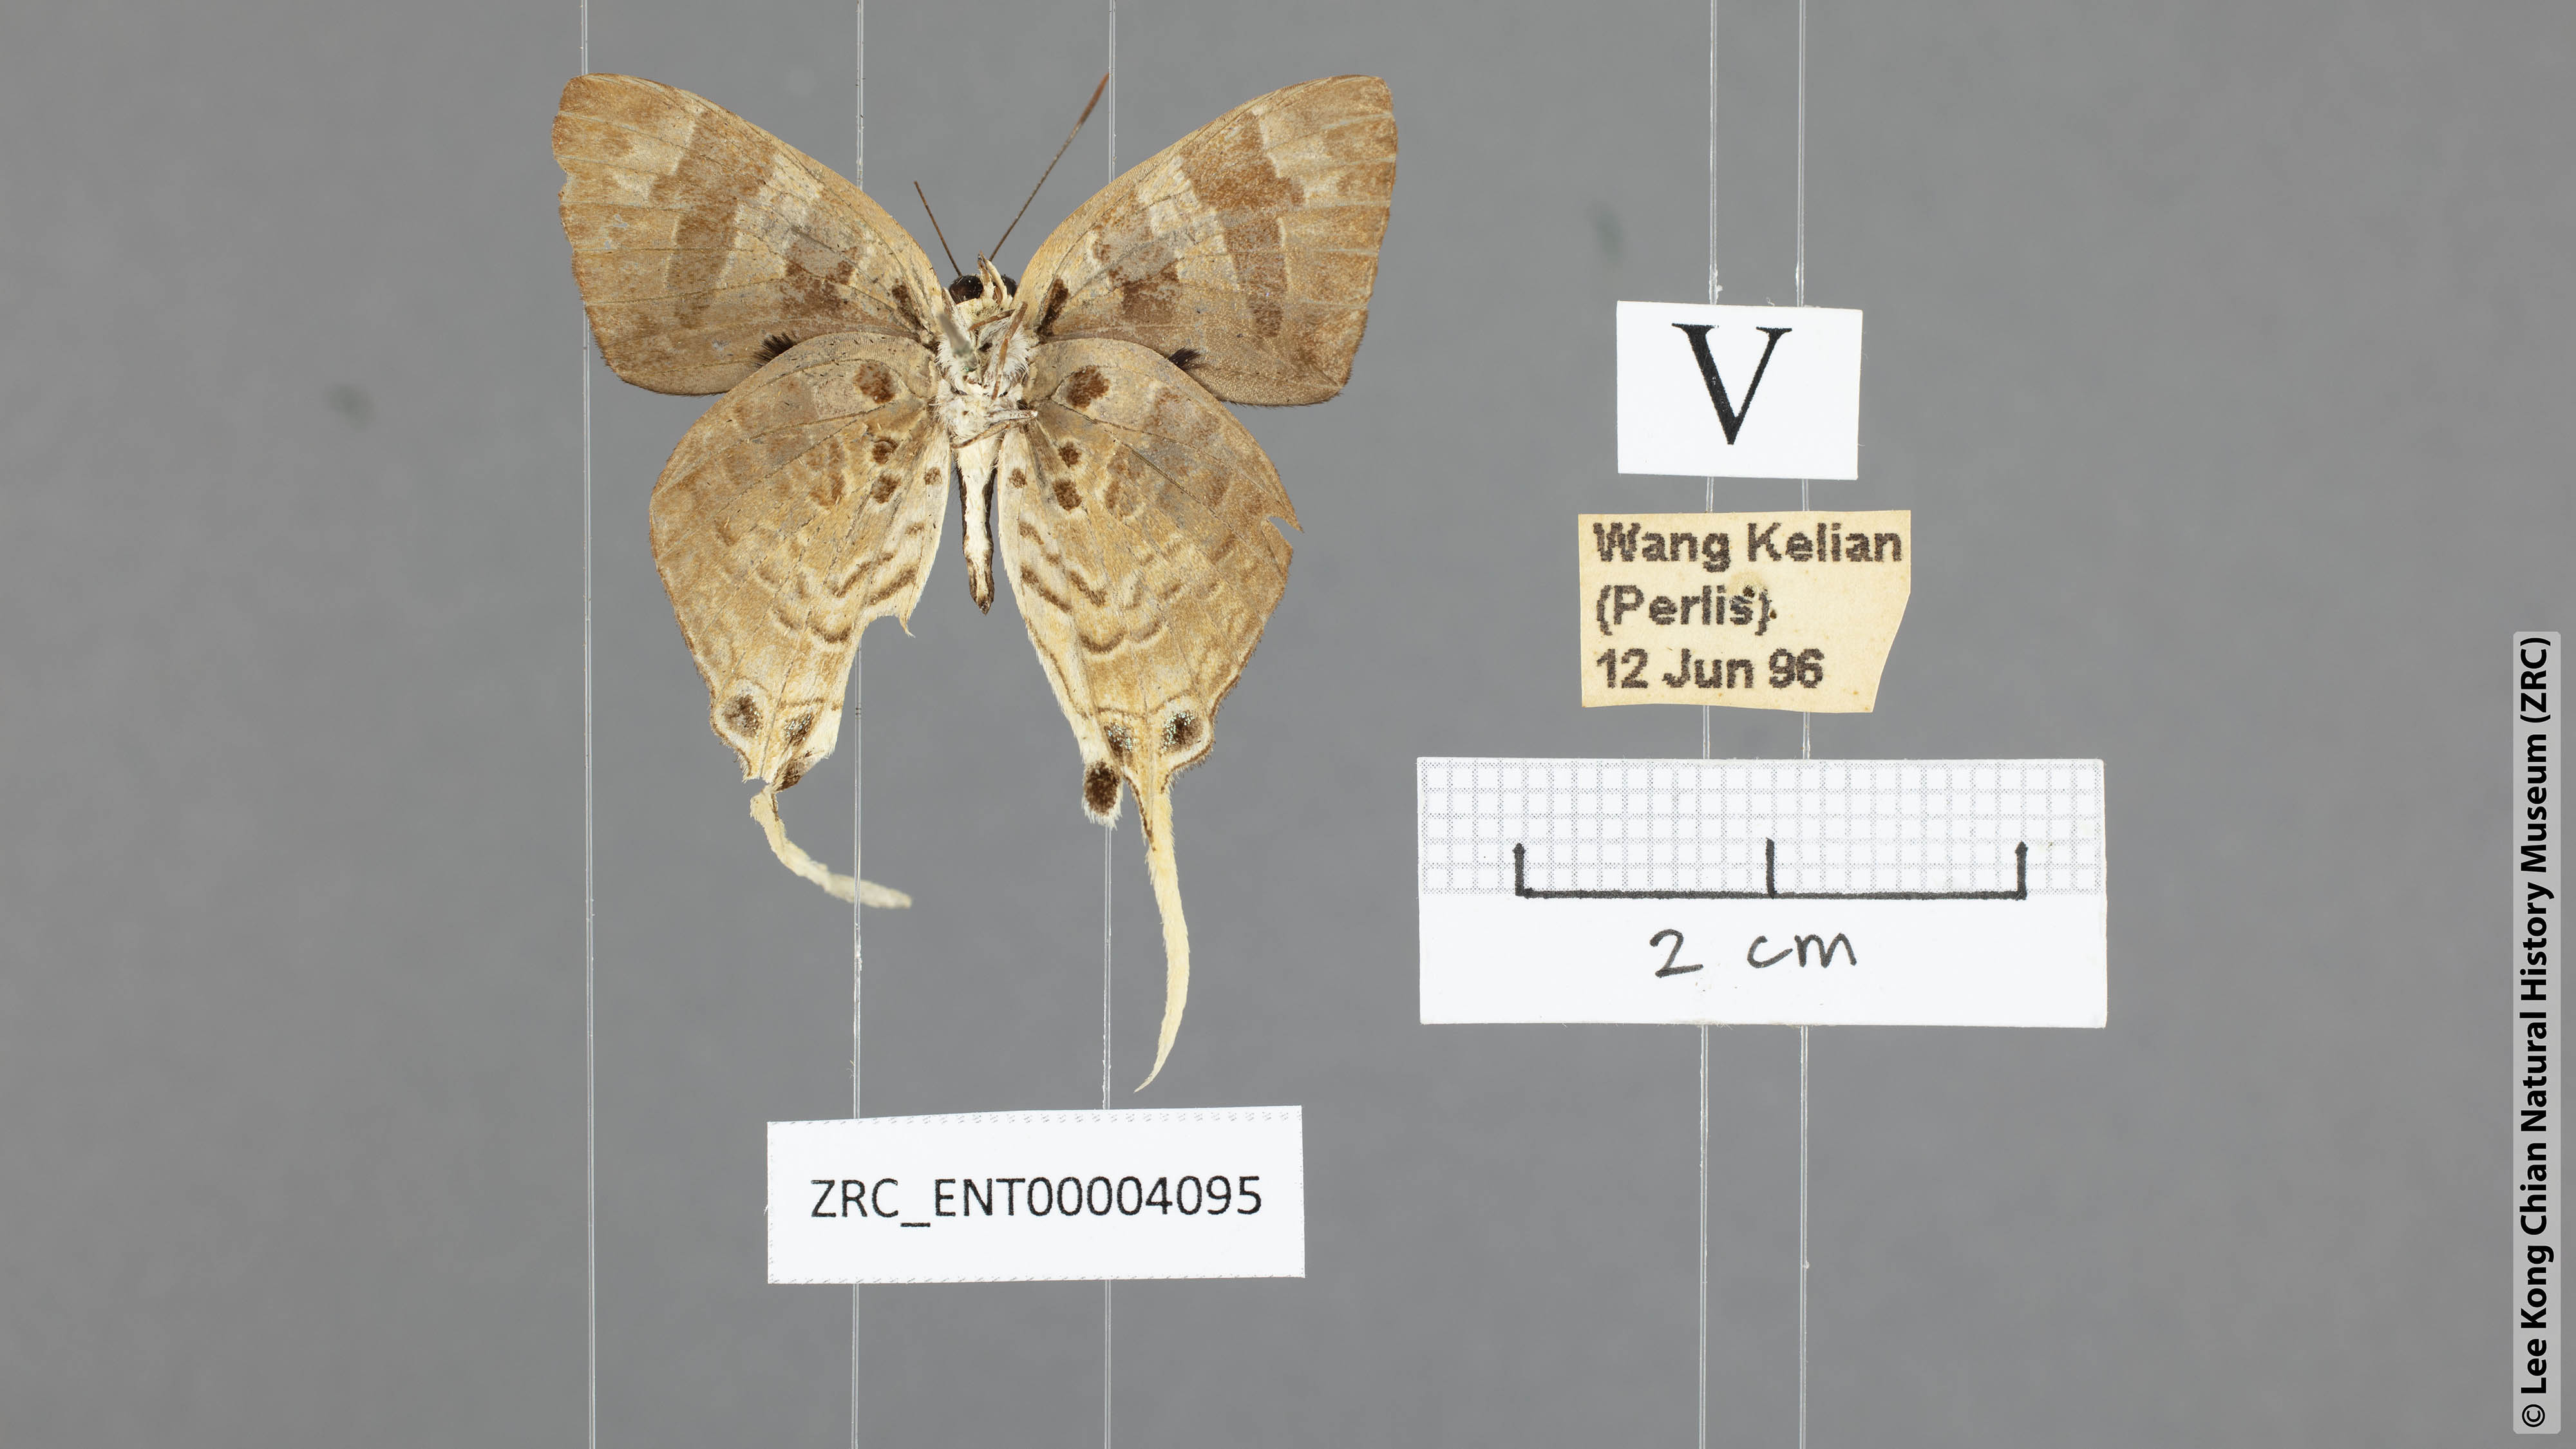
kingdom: Animalia
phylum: Arthropoda
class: Insecta
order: Lepidoptera
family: Lycaenidae
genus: Bindahara
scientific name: Bindahara phocides
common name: Sword-tailed flash
